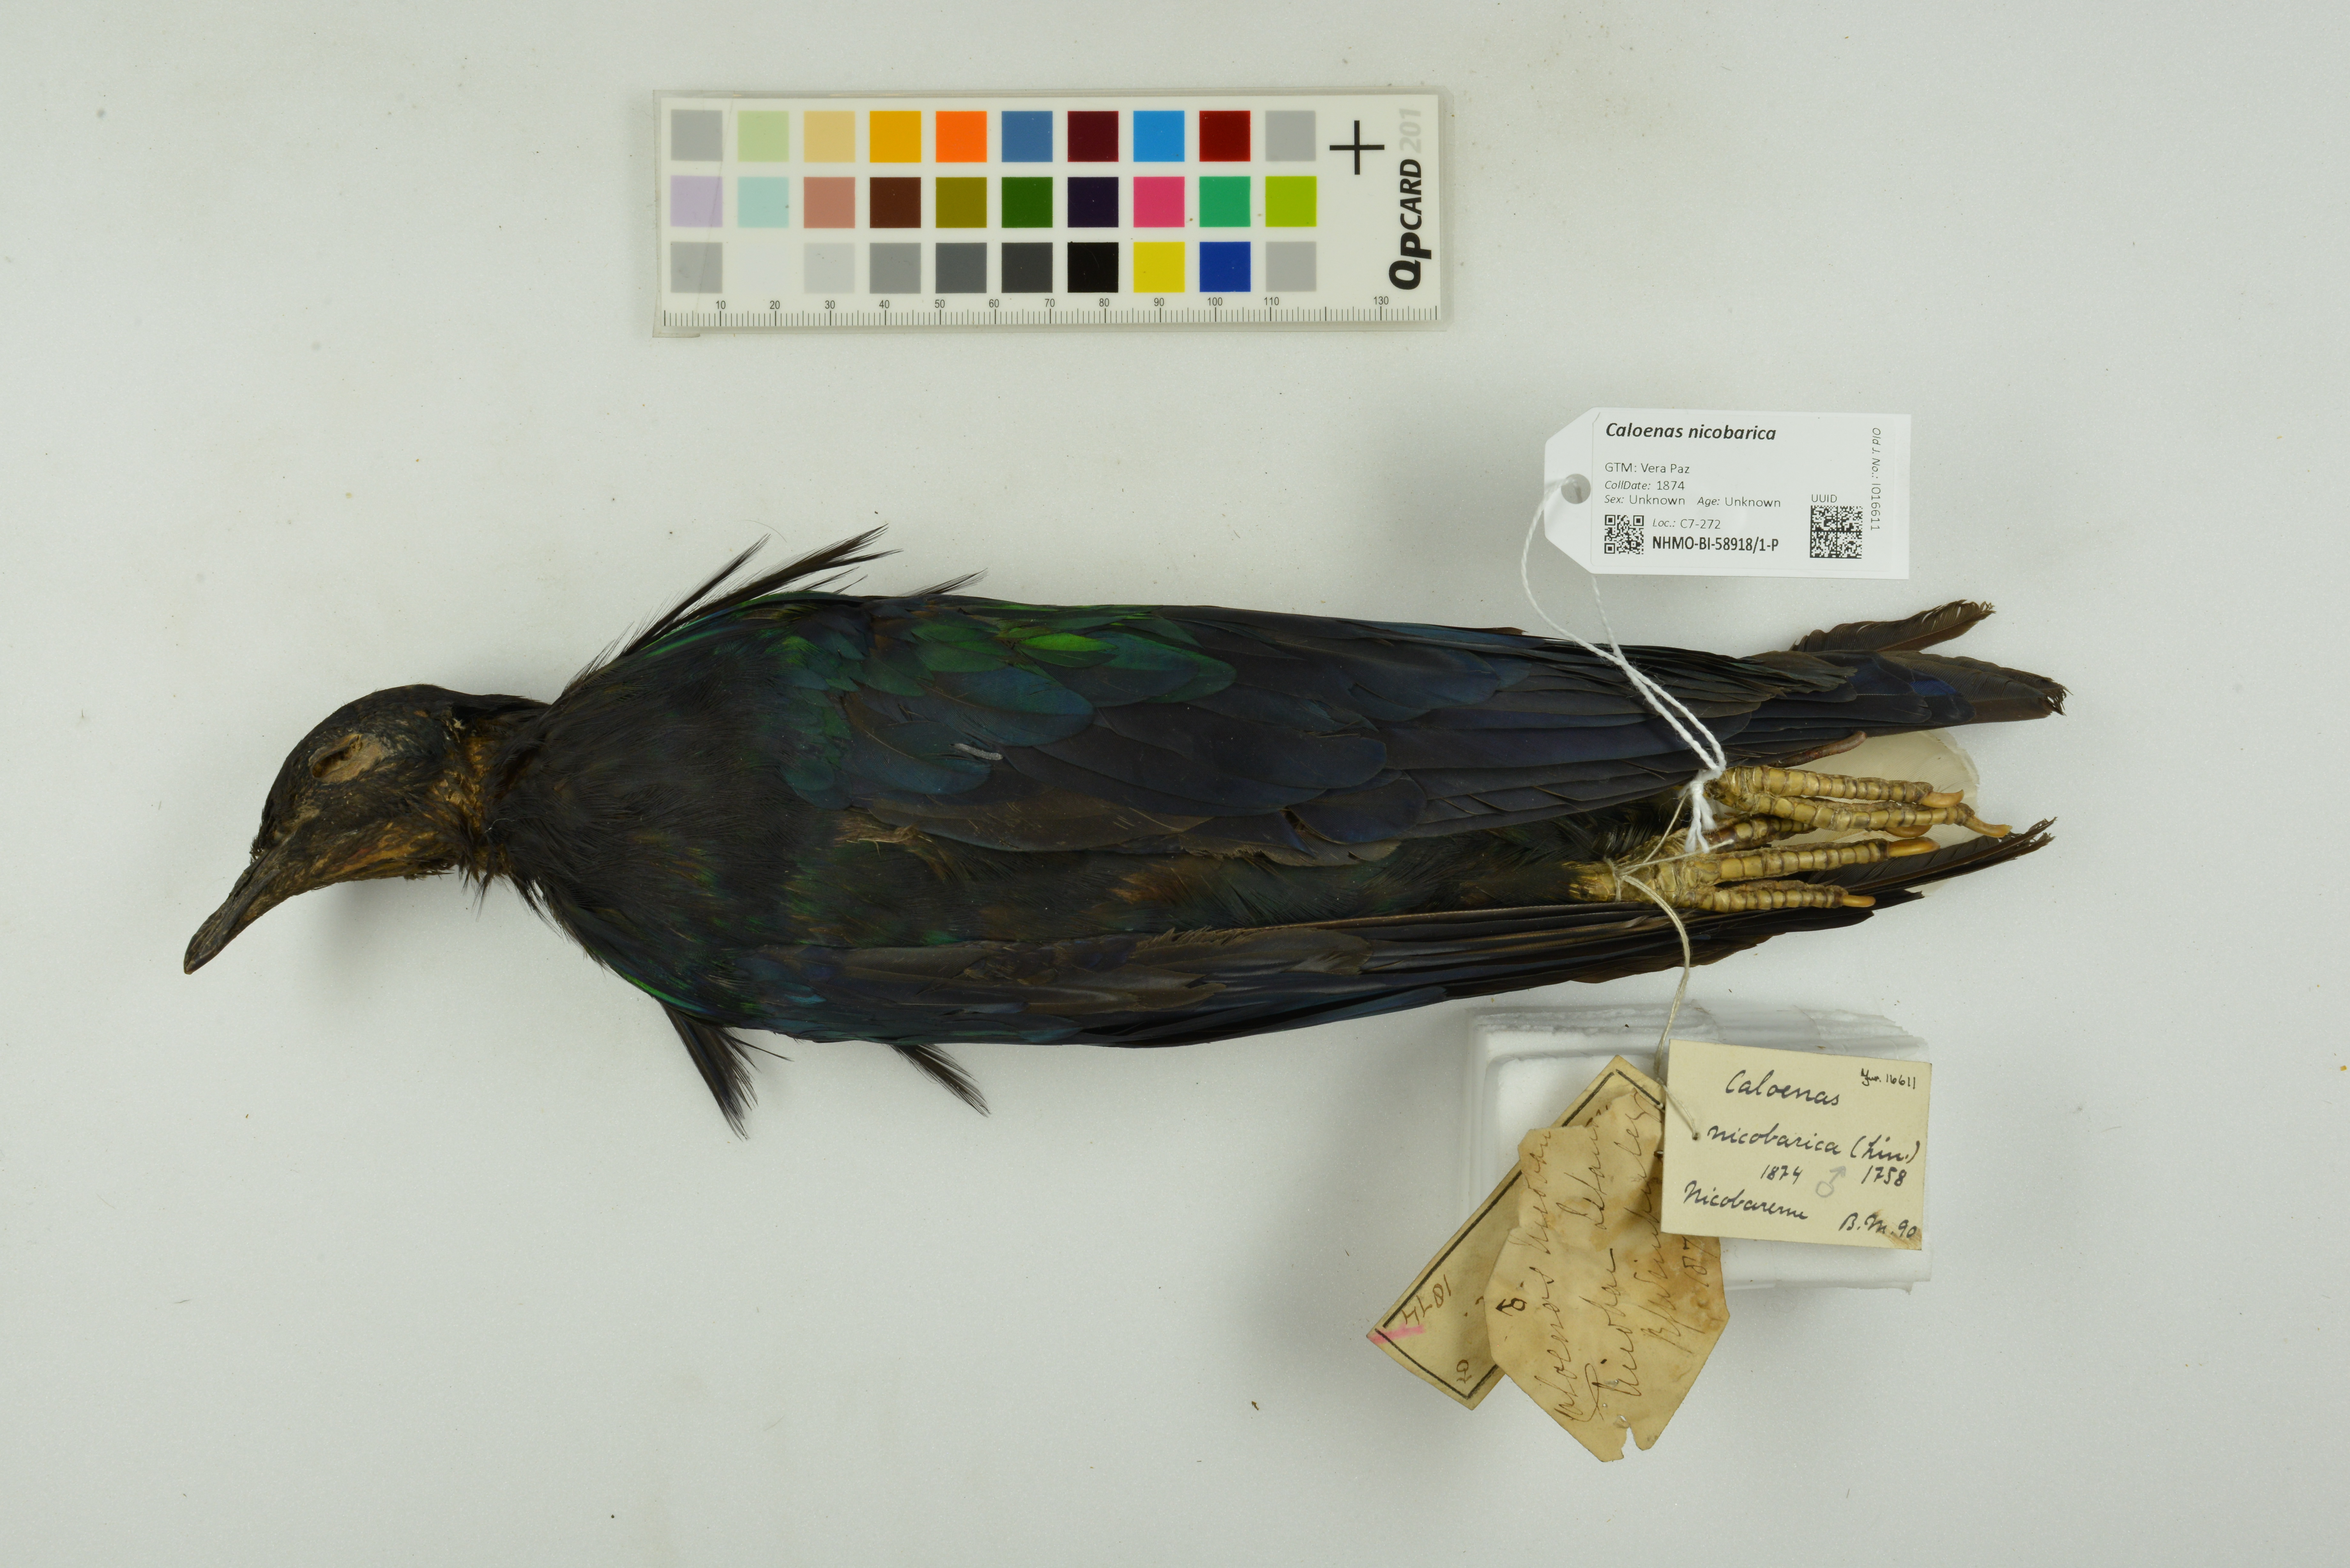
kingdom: Animalia
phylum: Chordata
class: Aves
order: Columbiformes
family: Columbidae
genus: Caloenas
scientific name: Caloenas nicobarica
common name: Nicobar pigeon
